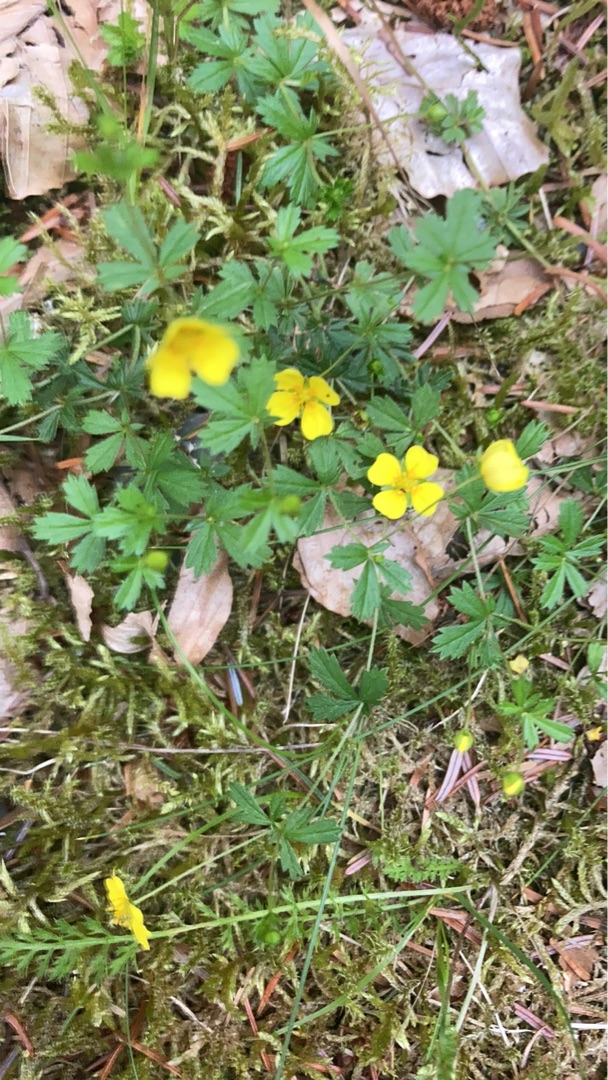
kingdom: Plantae
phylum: Tracheophyta
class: Magnoliopsida
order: Rosales
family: Rosaceae
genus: Potentilla
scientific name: Potentilla erecta
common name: Tormentil
